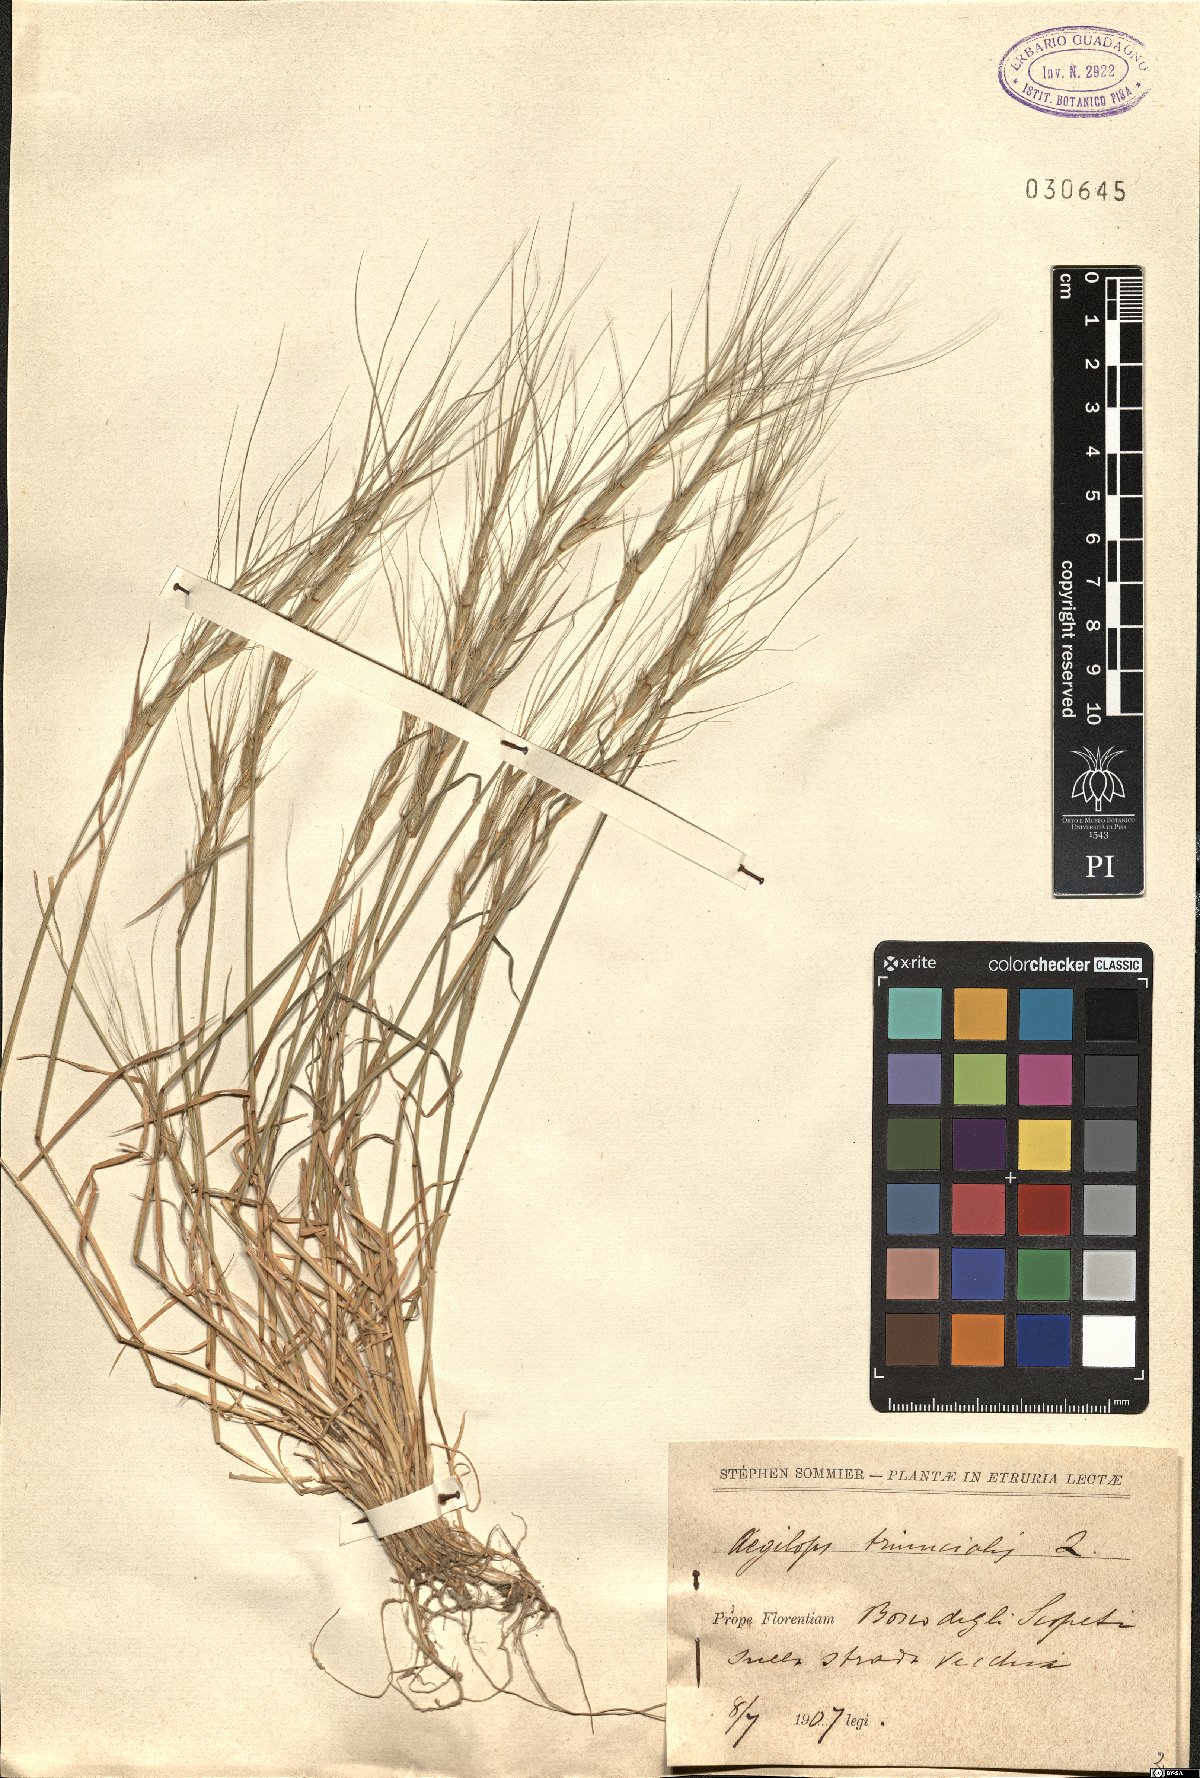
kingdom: Plantae
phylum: Tracheophyta
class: Liliopsida
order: Poales
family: Poaceae
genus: Aegilops
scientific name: Aegilops triuncialis
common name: Barb goat grass
